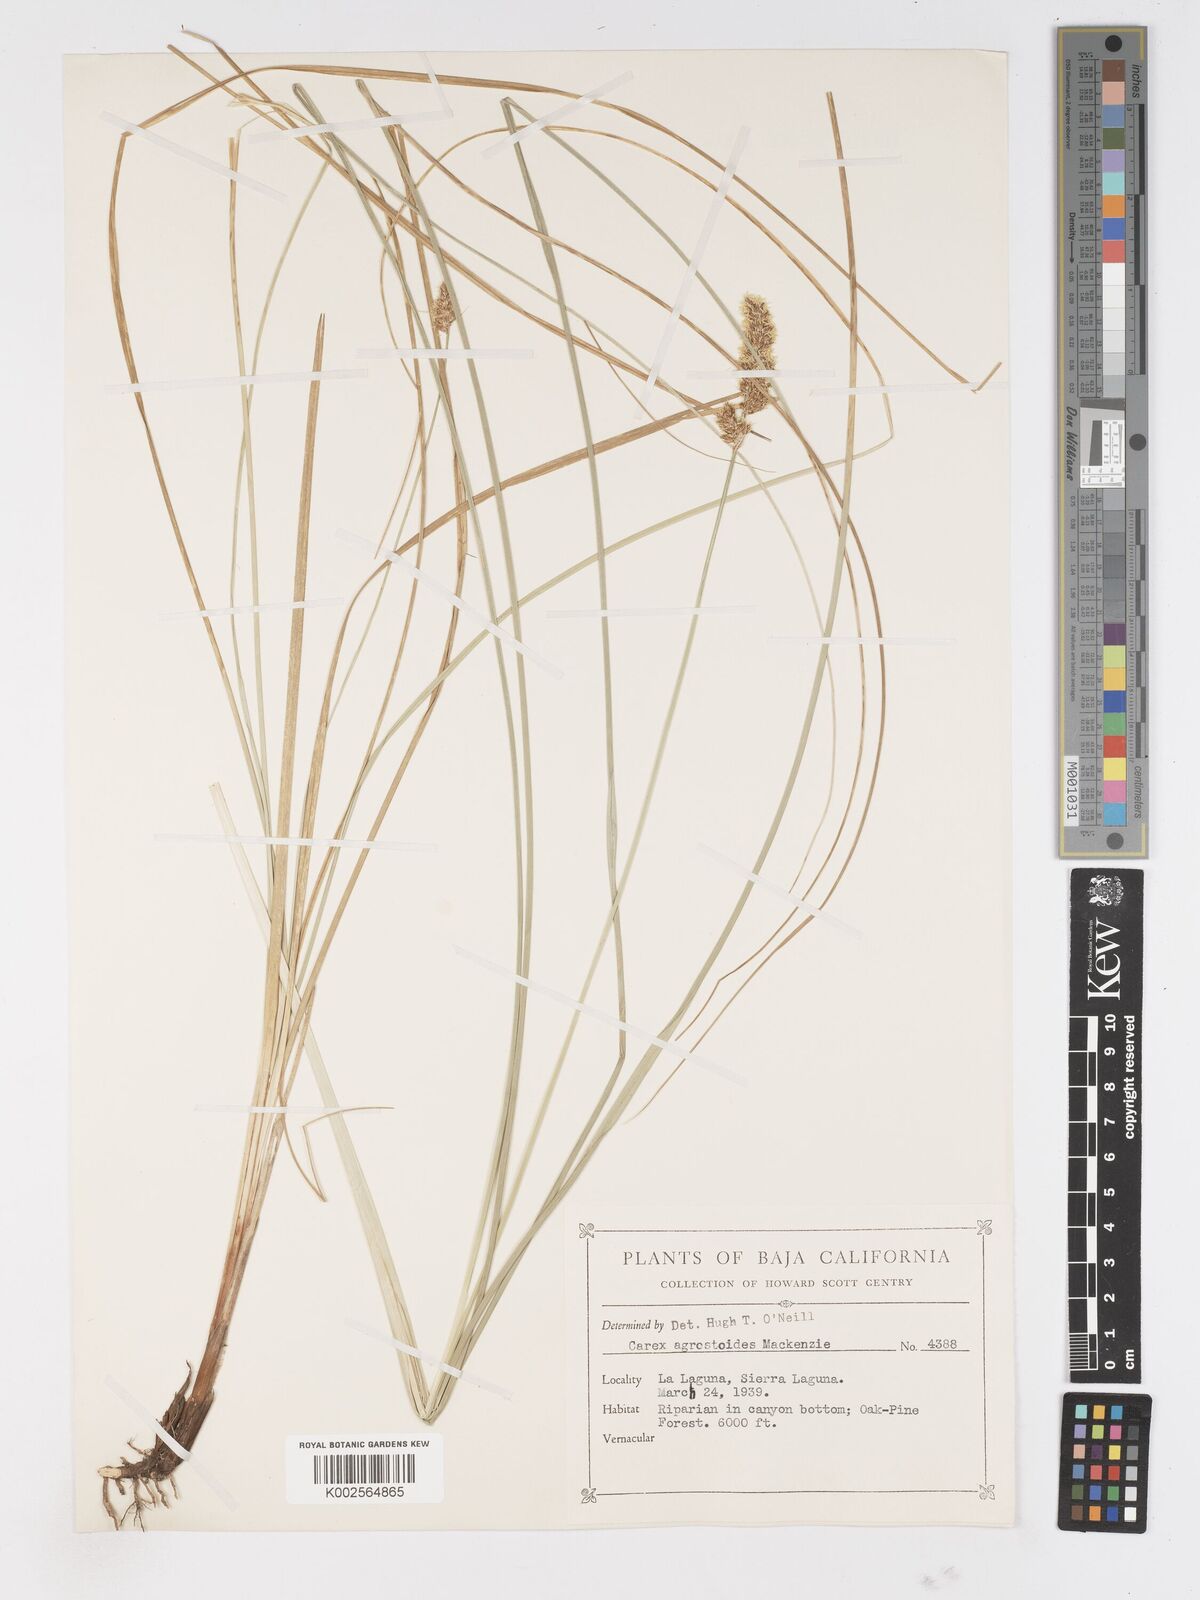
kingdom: Plantae
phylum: Tracheophyta
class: Liliopsida
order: Poales
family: Cyperaceae
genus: Carex
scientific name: Carex alma
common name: Alma sedge
